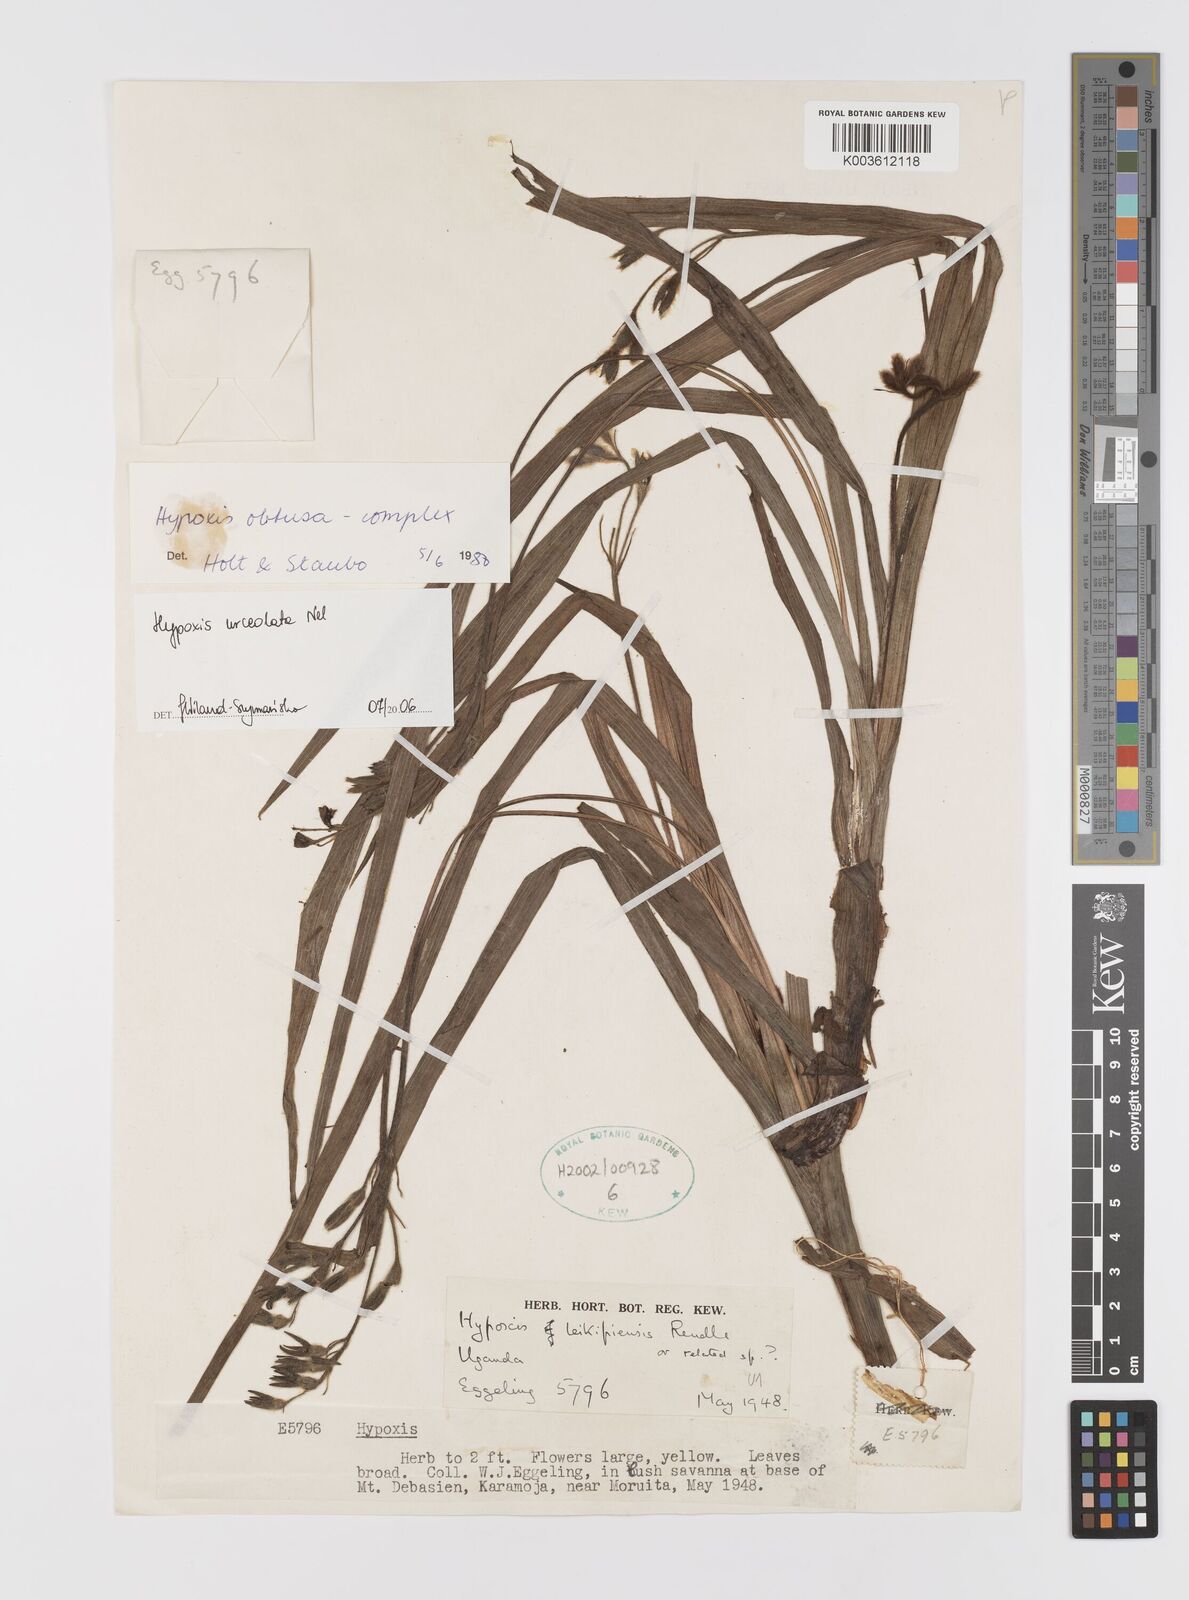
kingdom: Plantae
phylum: Tracheophyta
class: Liliopsida
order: Asparagales
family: Hypoxidaceae
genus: Hypoxis
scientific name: Hypoxis urceolata
